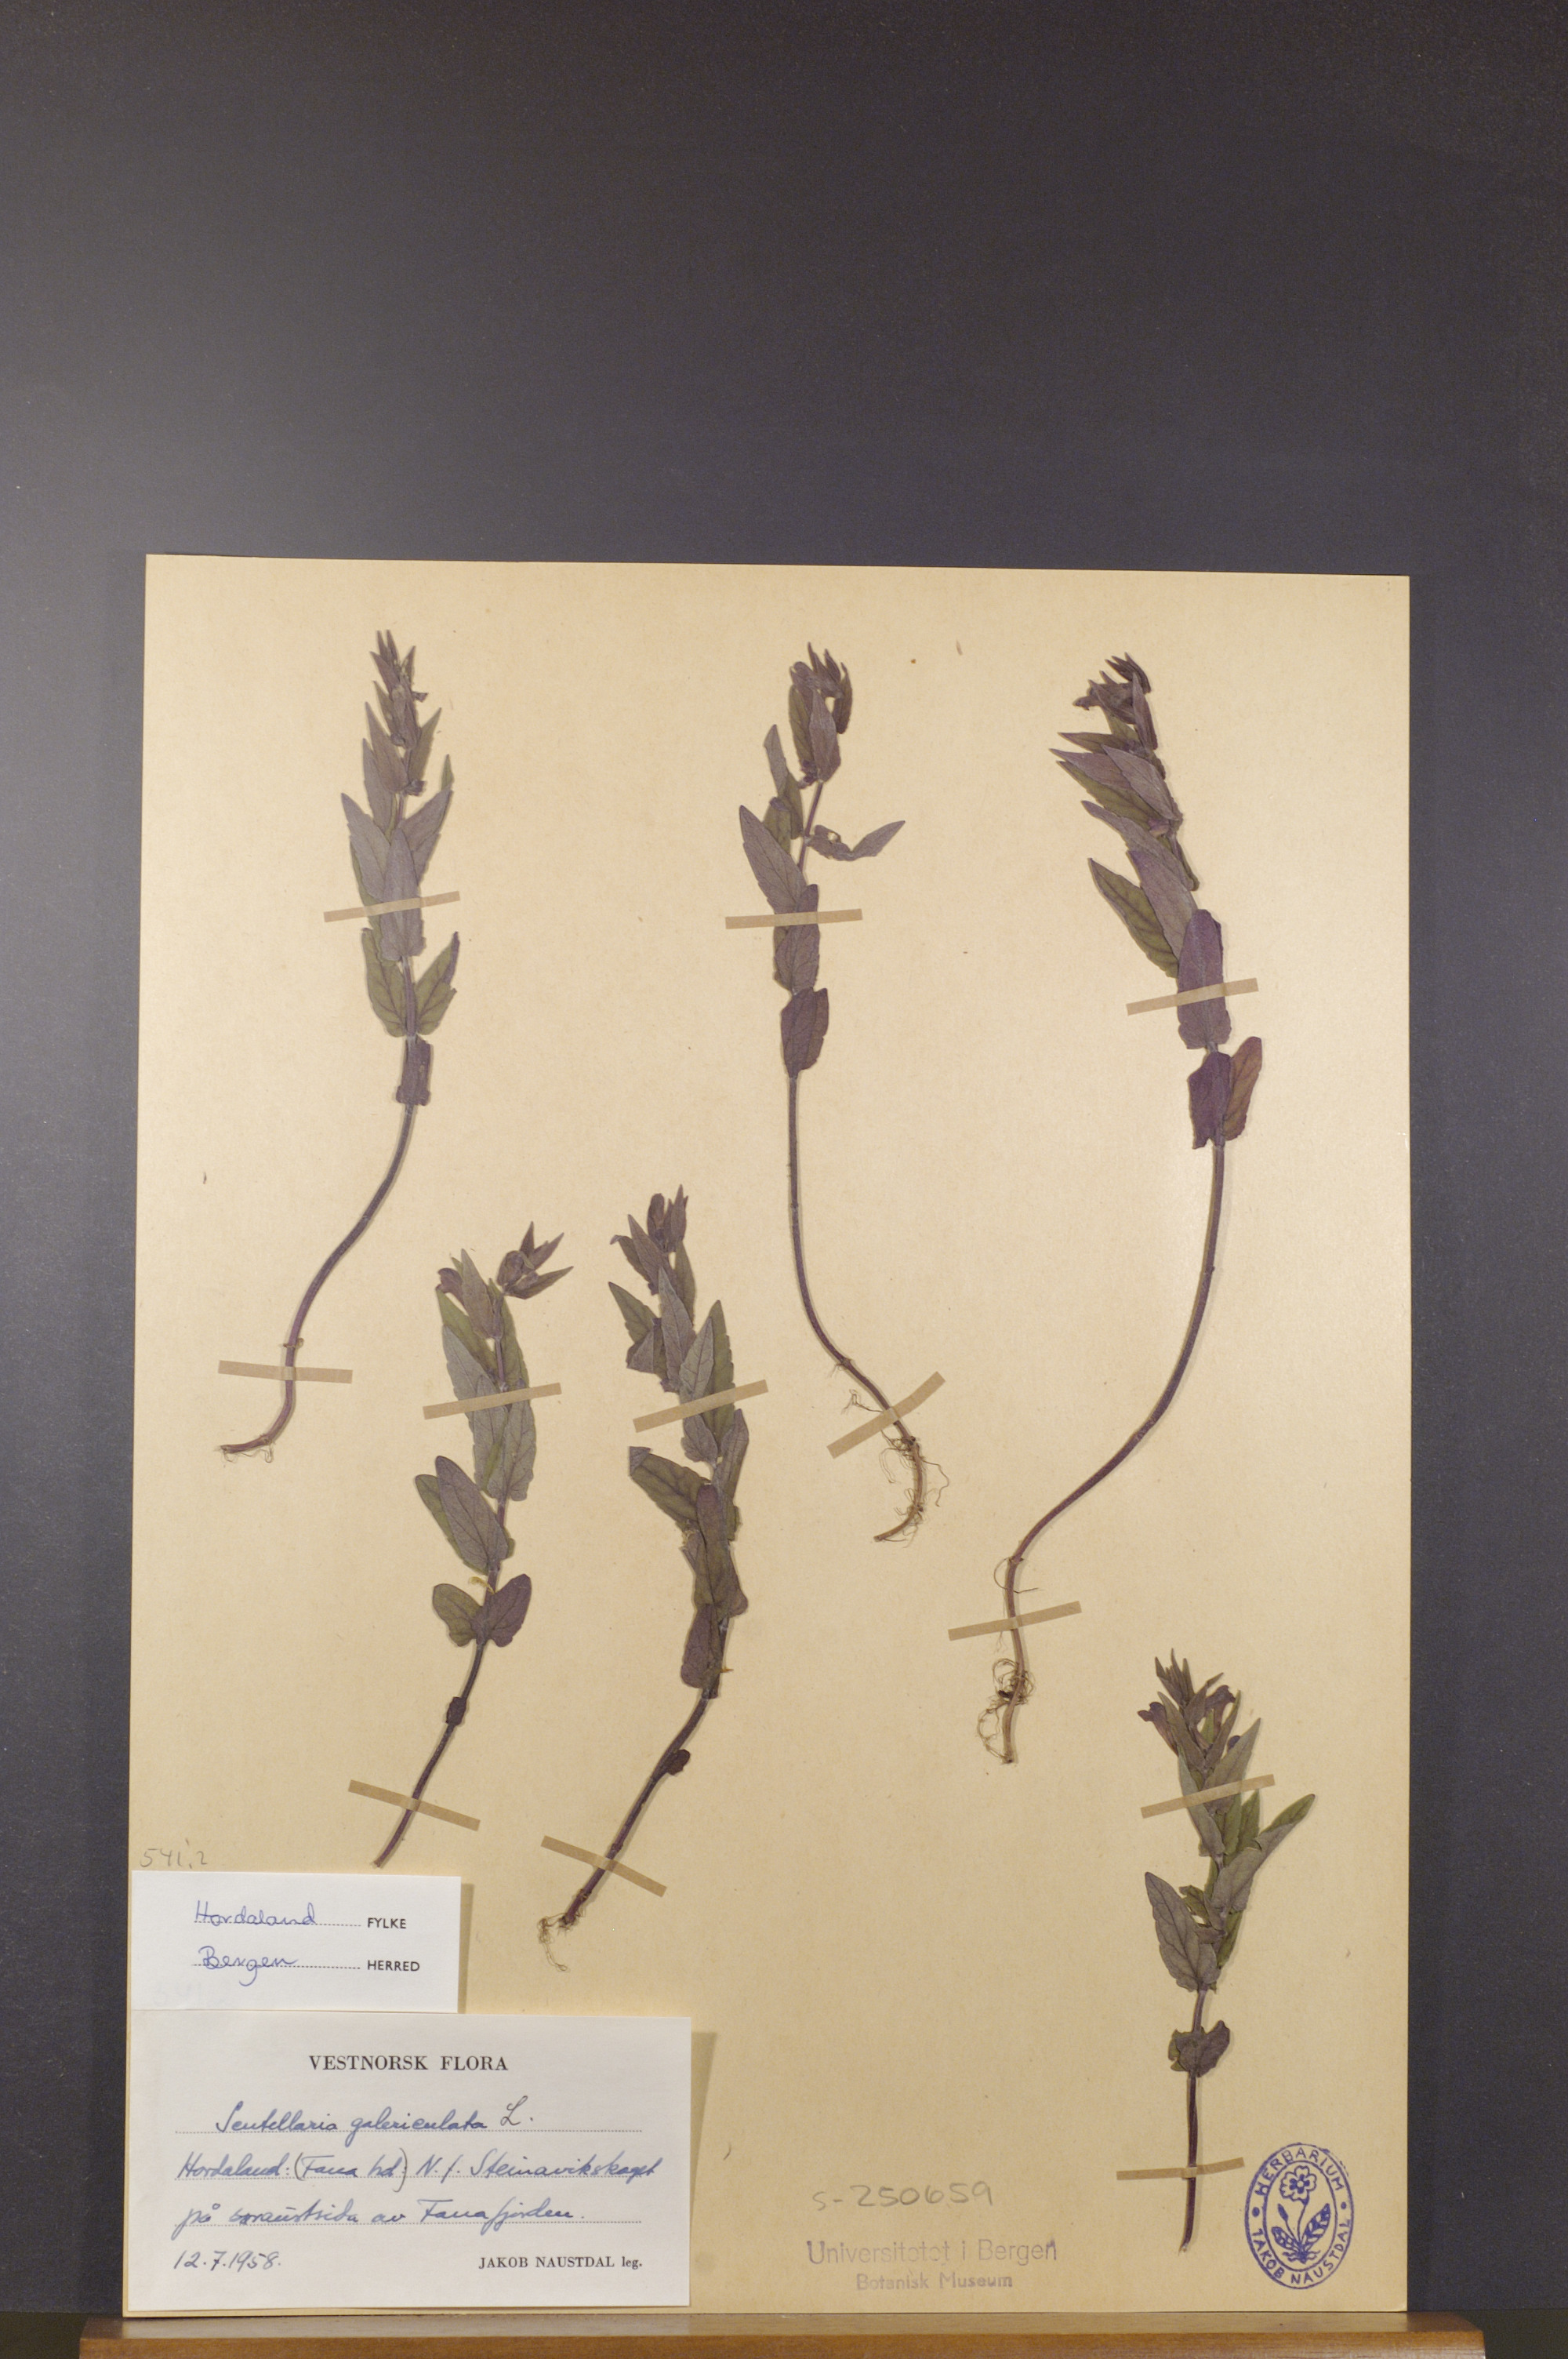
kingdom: Plantae
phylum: Tracheophyta
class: Magnoliopsida
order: Lamiales
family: Lamiaceae
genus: Scutellaria
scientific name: Scutellaria galericulata
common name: Skullcap
